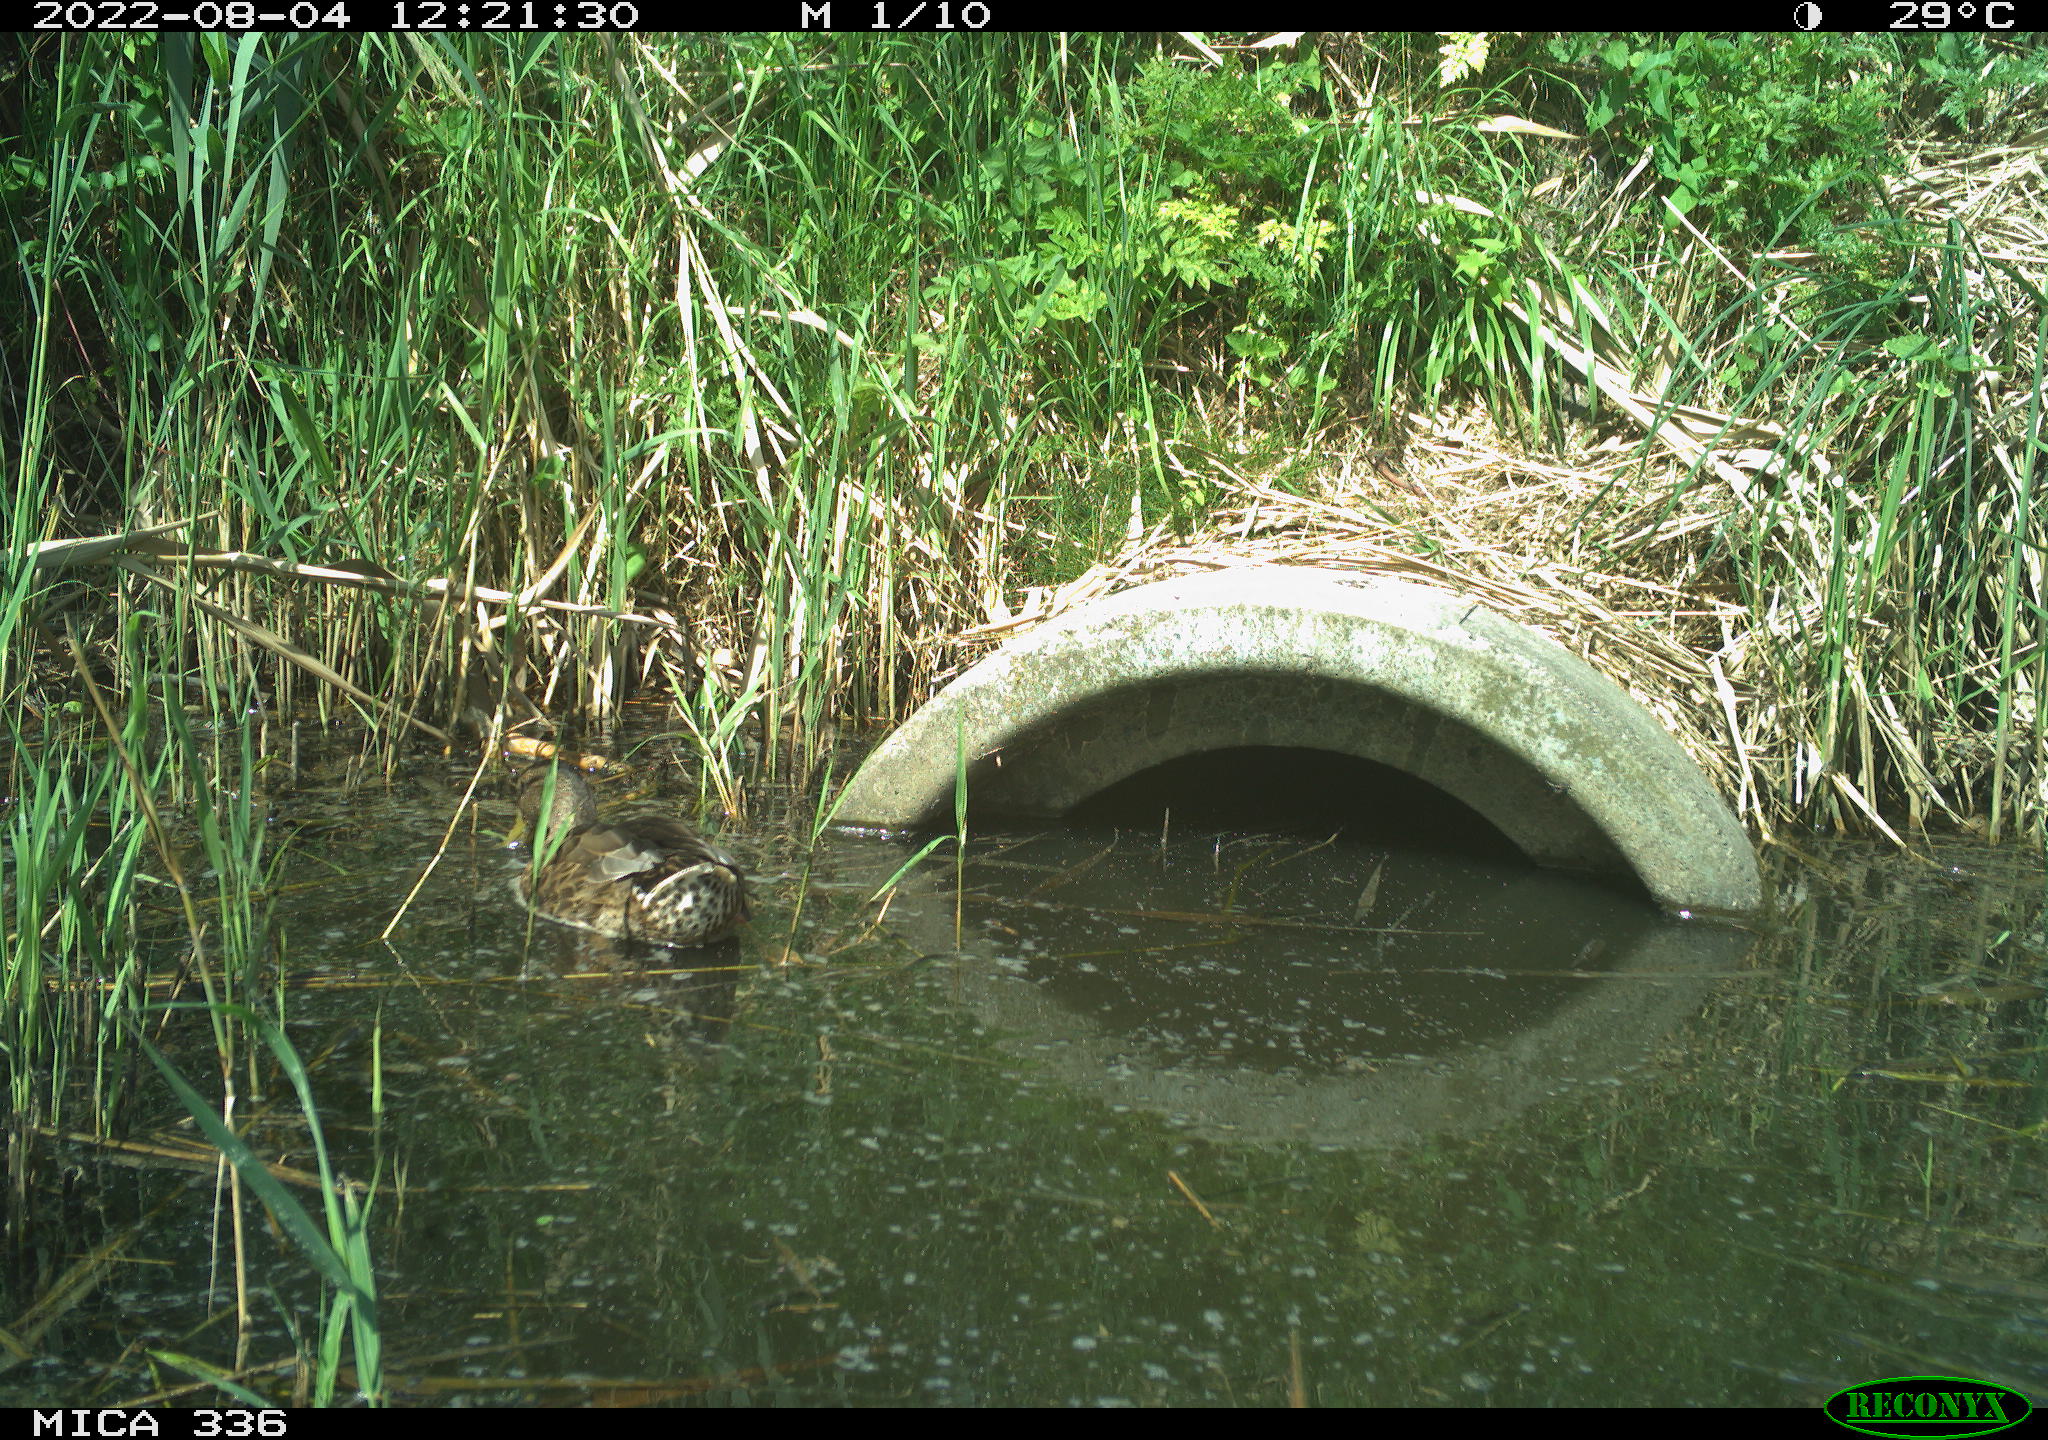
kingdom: Animalia
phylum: Chordata
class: Aves
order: Anseriformes
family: Anatidae
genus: Mareca
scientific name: Mareca strepera
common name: Gadwall
